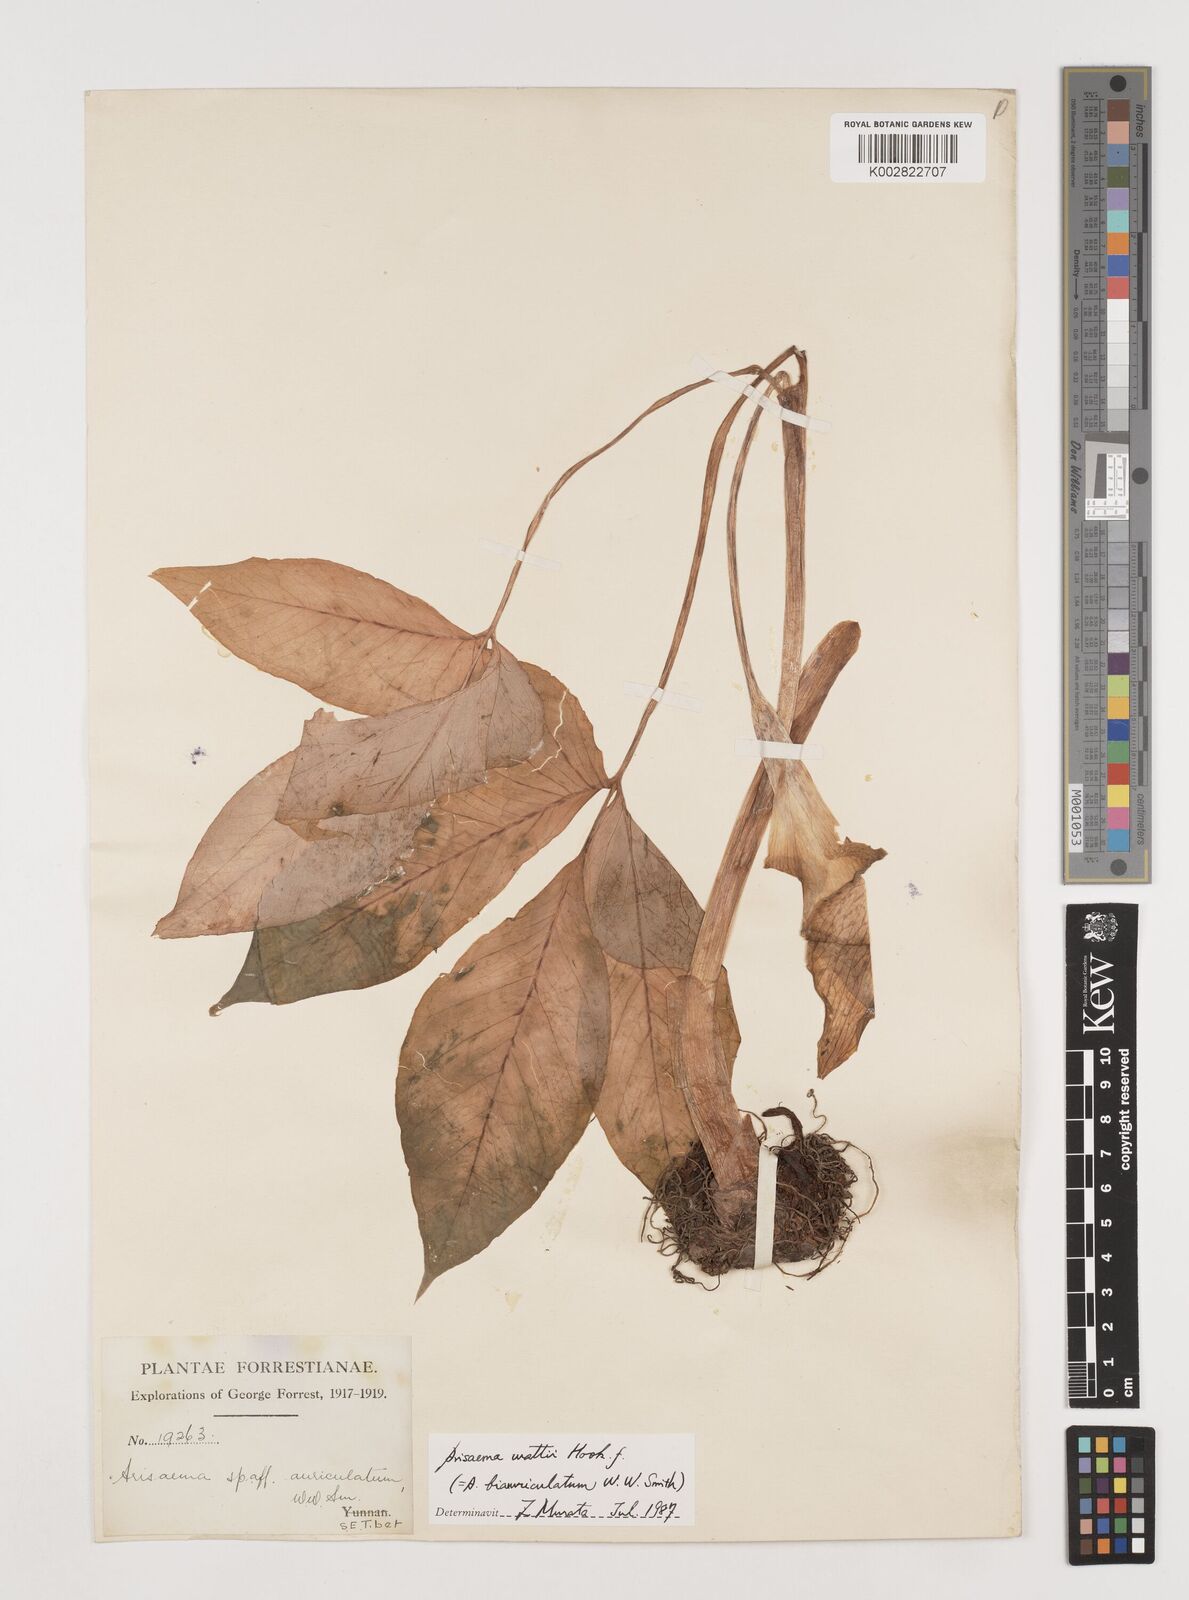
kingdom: Plantae
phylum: Tracheophyta
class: Liliopsida
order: Alismatales
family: Araceae
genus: Arisaema
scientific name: Arisaema wattii
